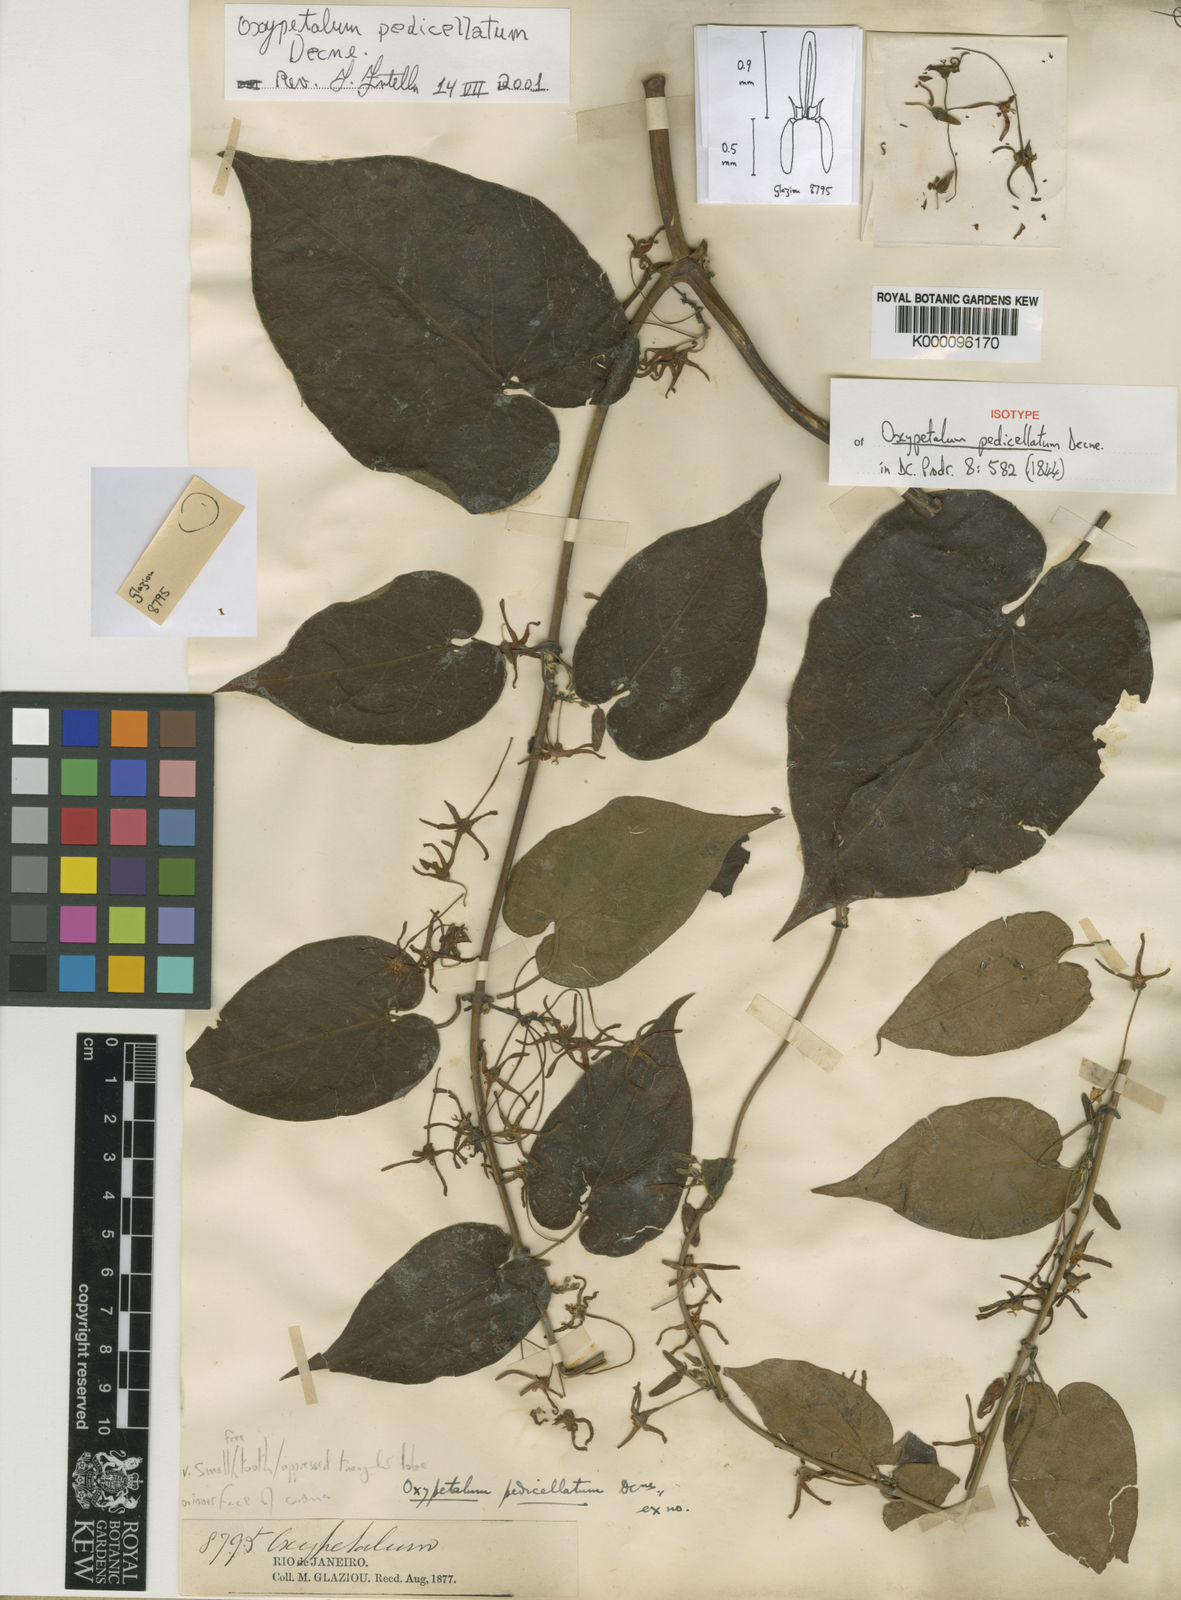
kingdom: Plantae
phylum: Tracheophyta
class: Magnoliopsida
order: Gentianales
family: Apocynaceae
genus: Oxypetalum
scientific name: Oxypetalum cordifolium
